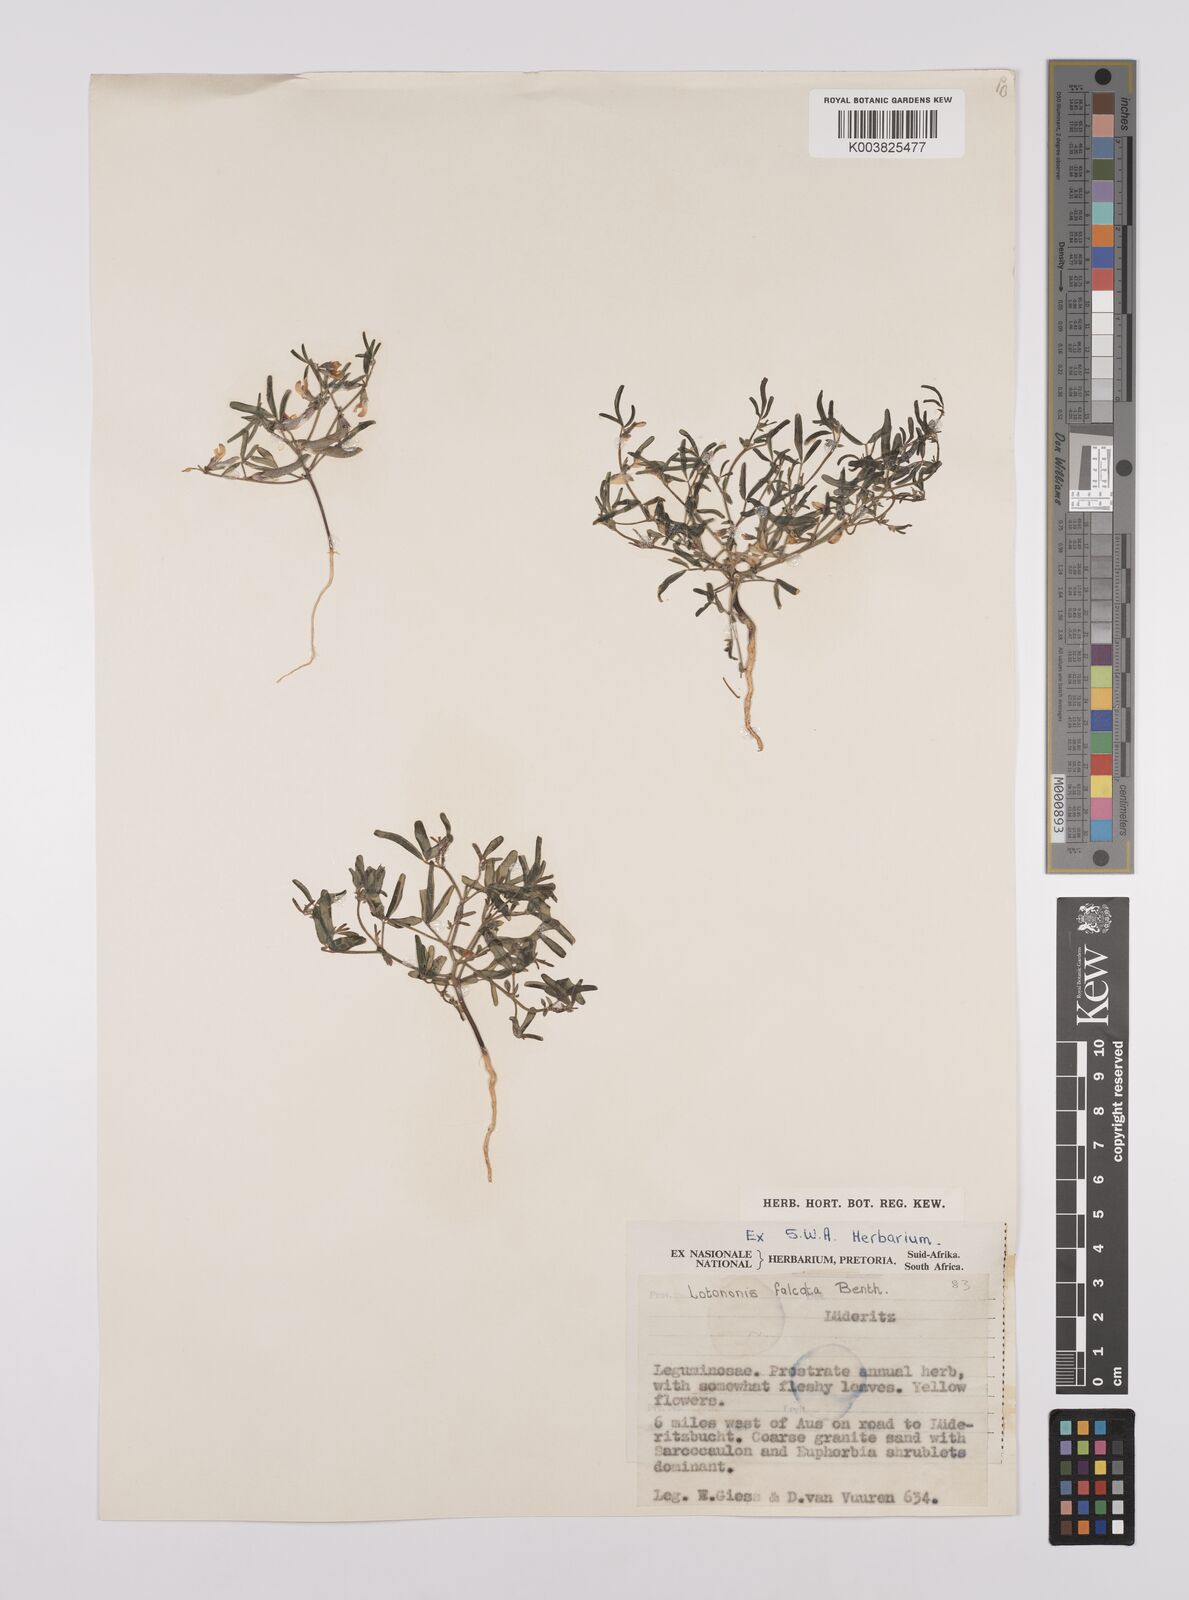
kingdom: Plantae
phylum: Tracheophyta
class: Magnoliopsida
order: Fabales
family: Fabaceae
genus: Lotononis
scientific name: Lotononis falcata
